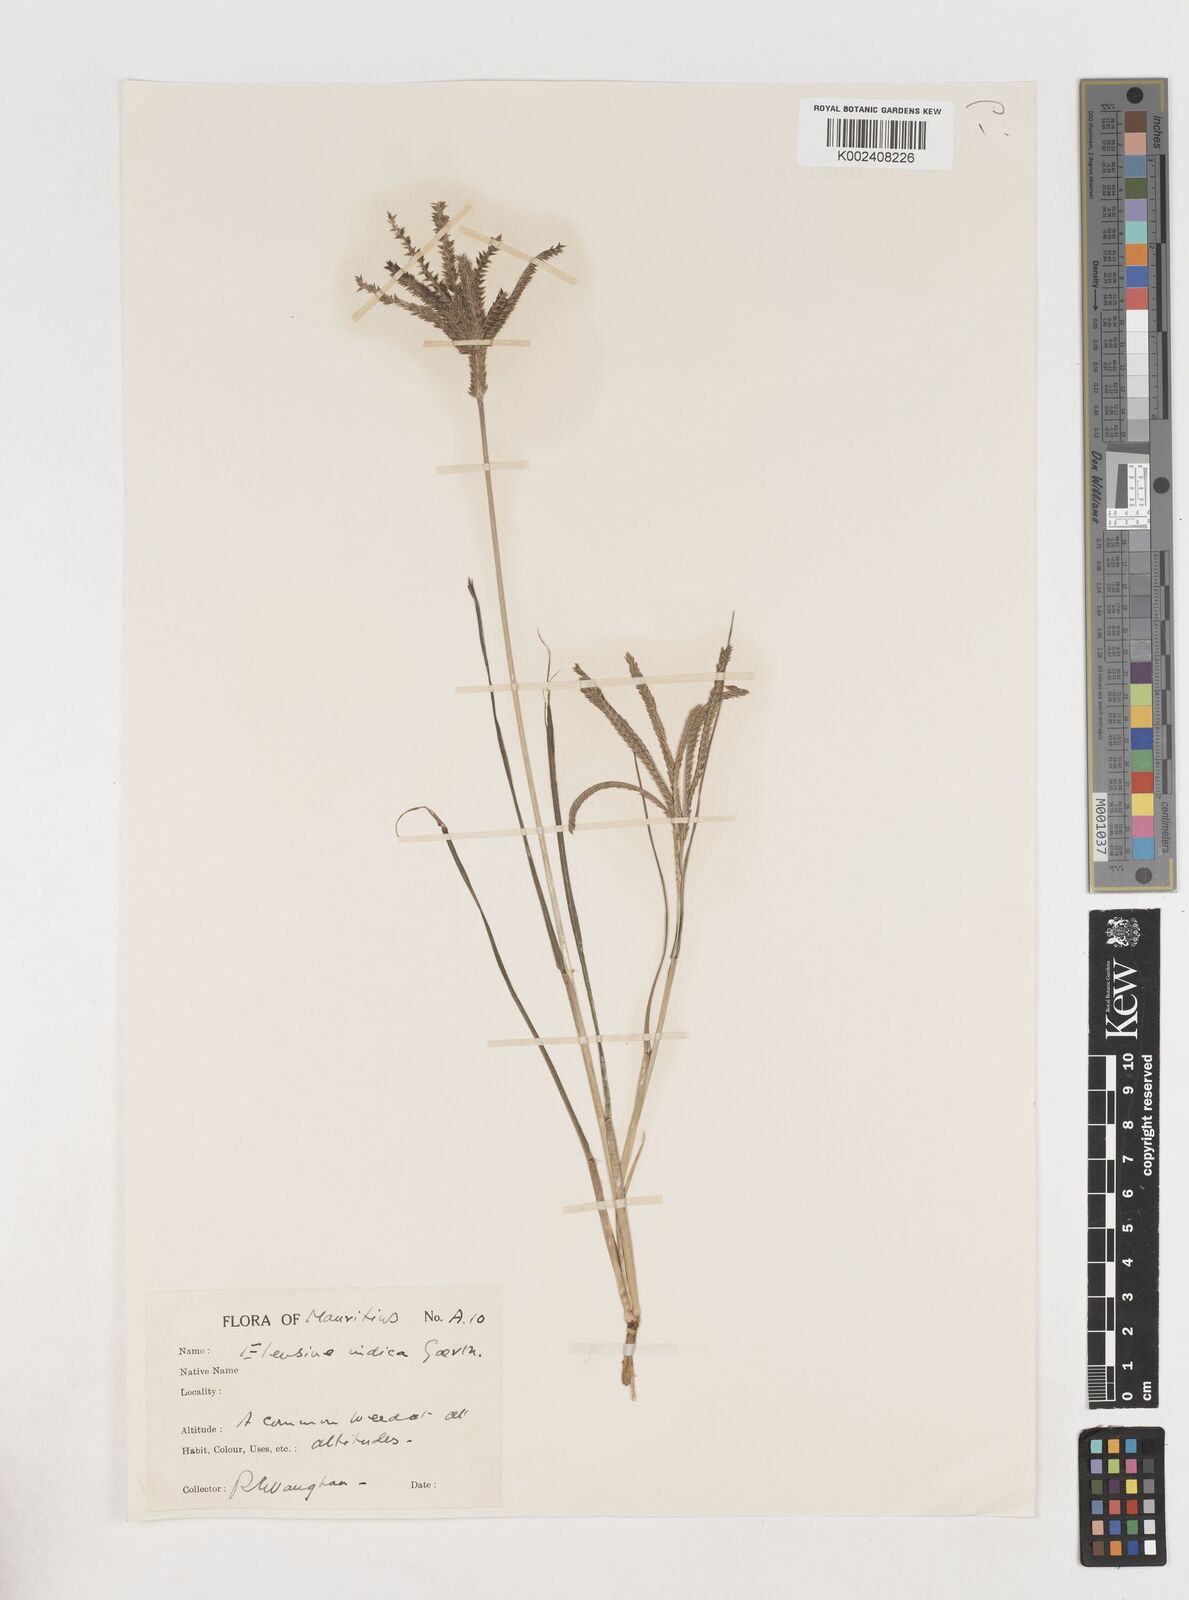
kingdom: Plantae
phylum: Tracheophyta
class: Liliopsida
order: Poales
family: Poaceae
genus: Eleusine
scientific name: Eleusine africana
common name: Wild african finger millet
